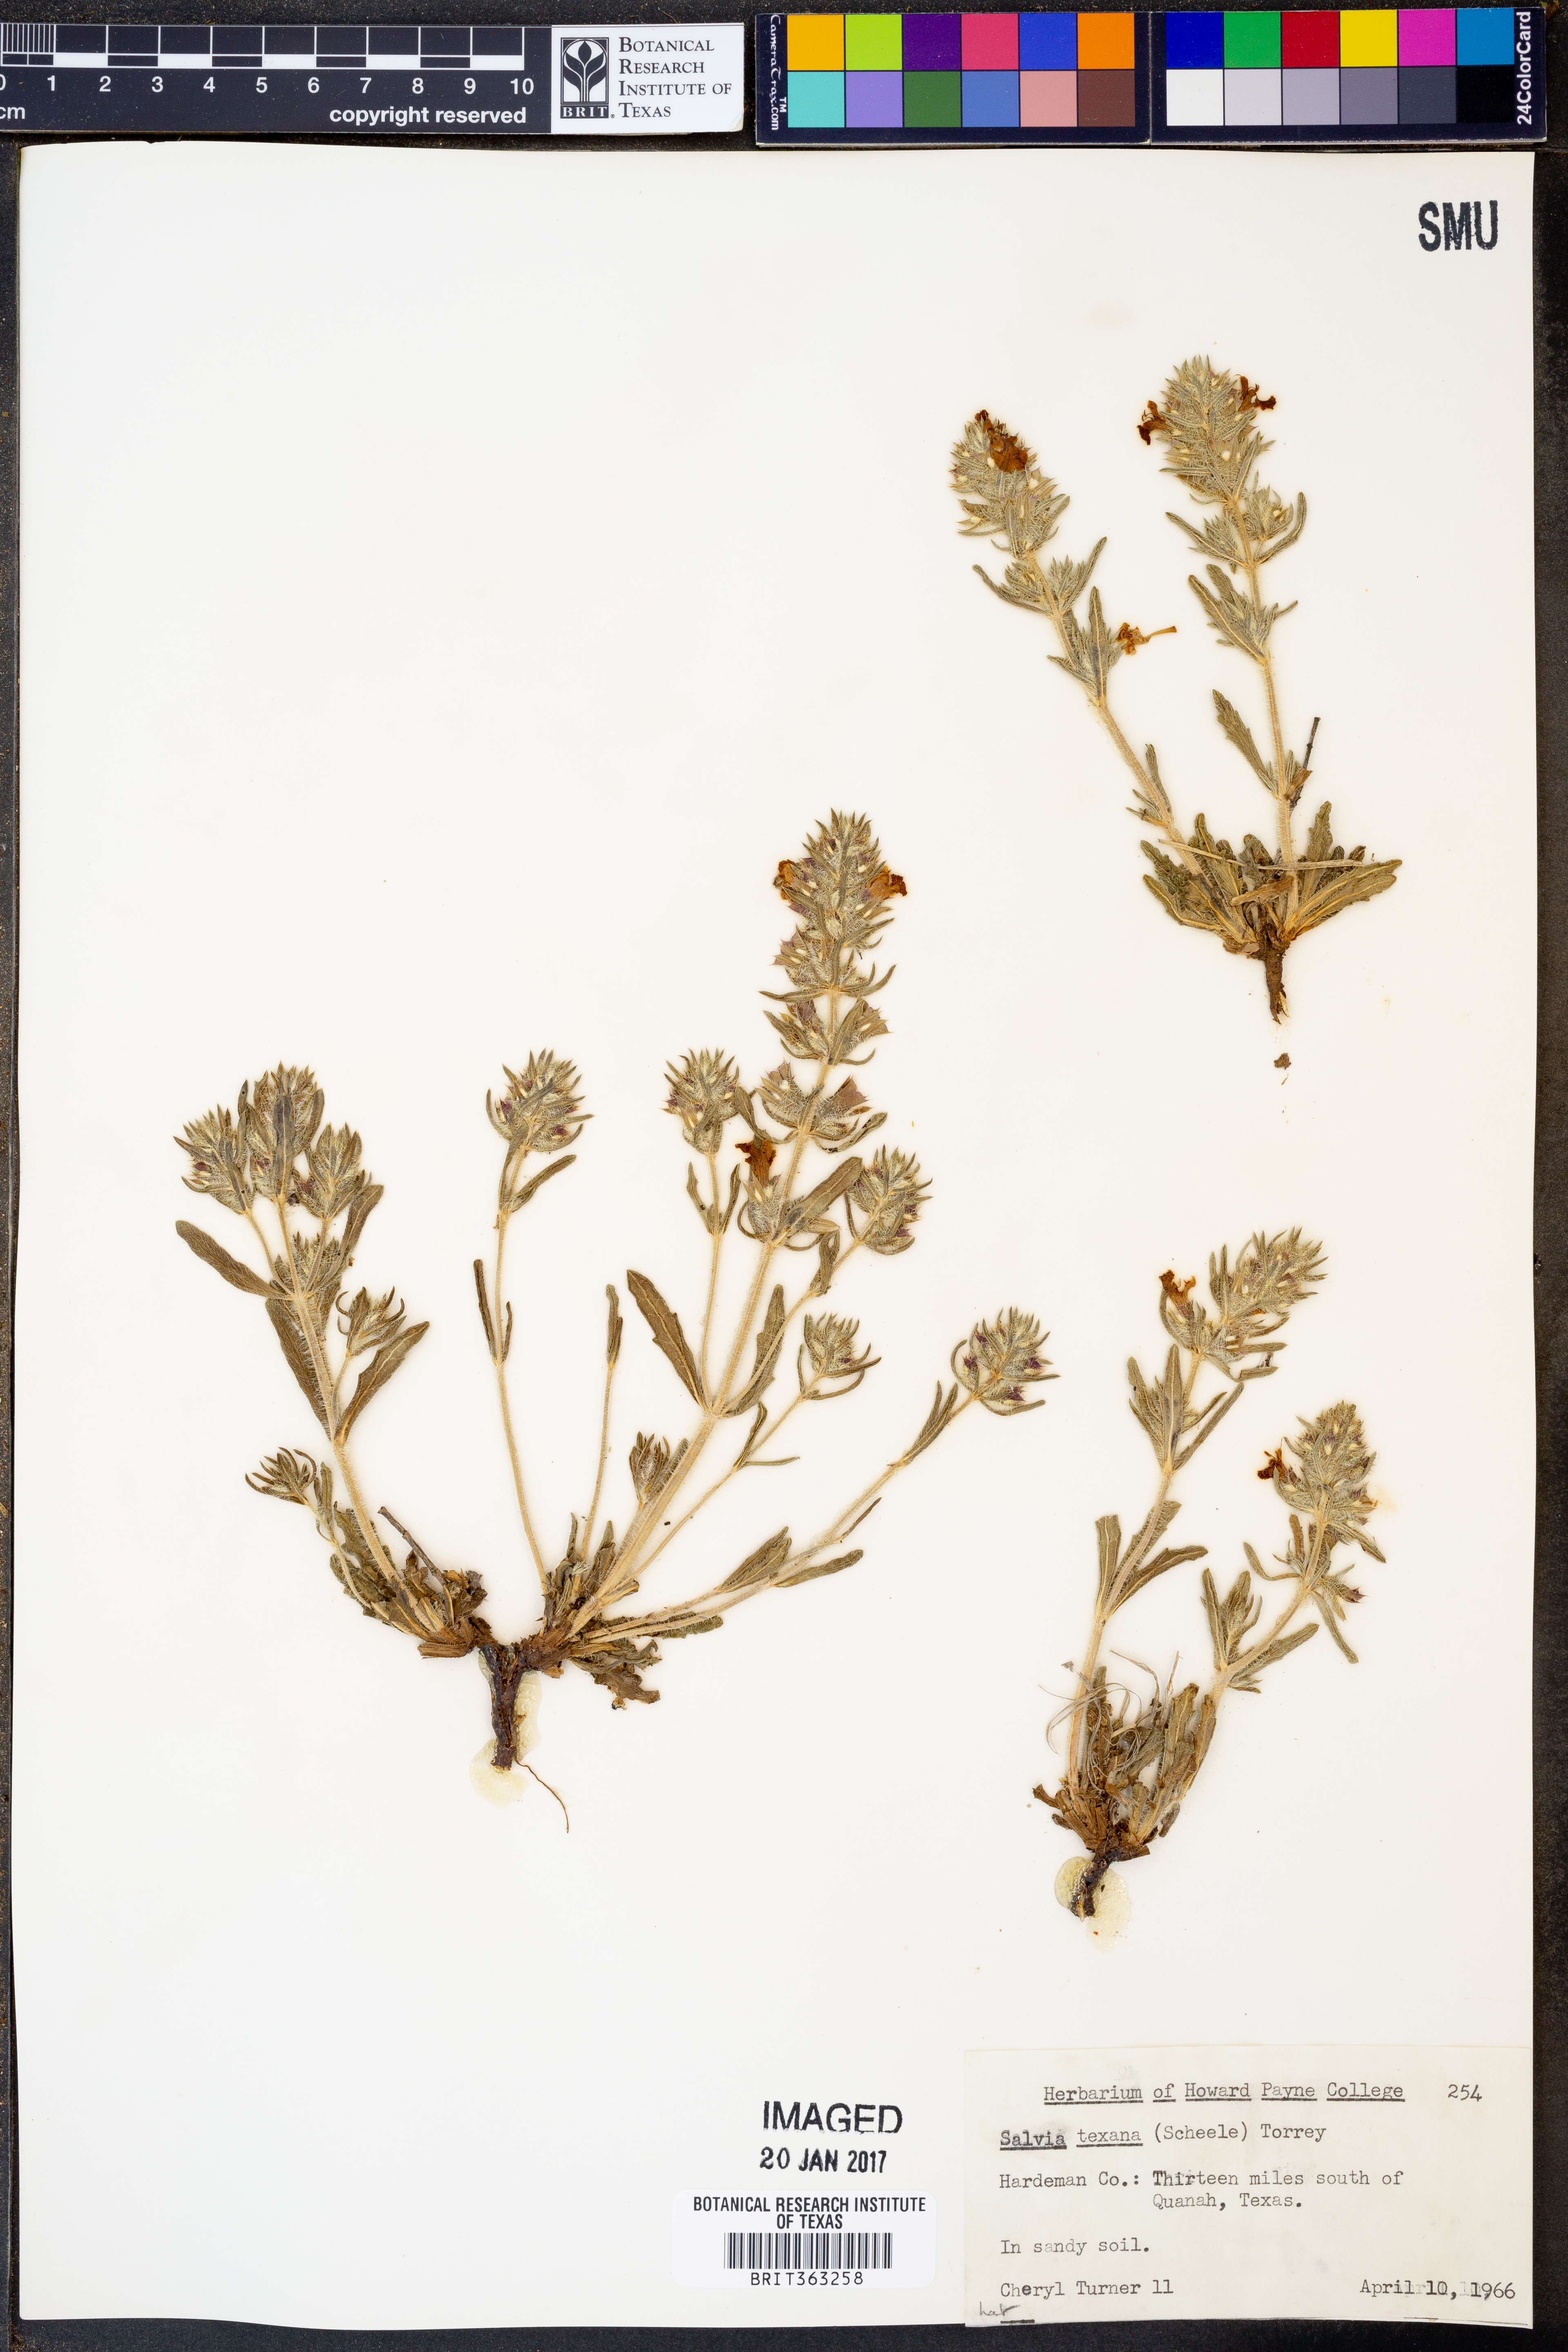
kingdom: Plantae
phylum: Tracheophyta
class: Magnoliopsida
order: Lamiales
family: Lamiaceae
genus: Salvia
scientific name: Salvia texana
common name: Texas sage
